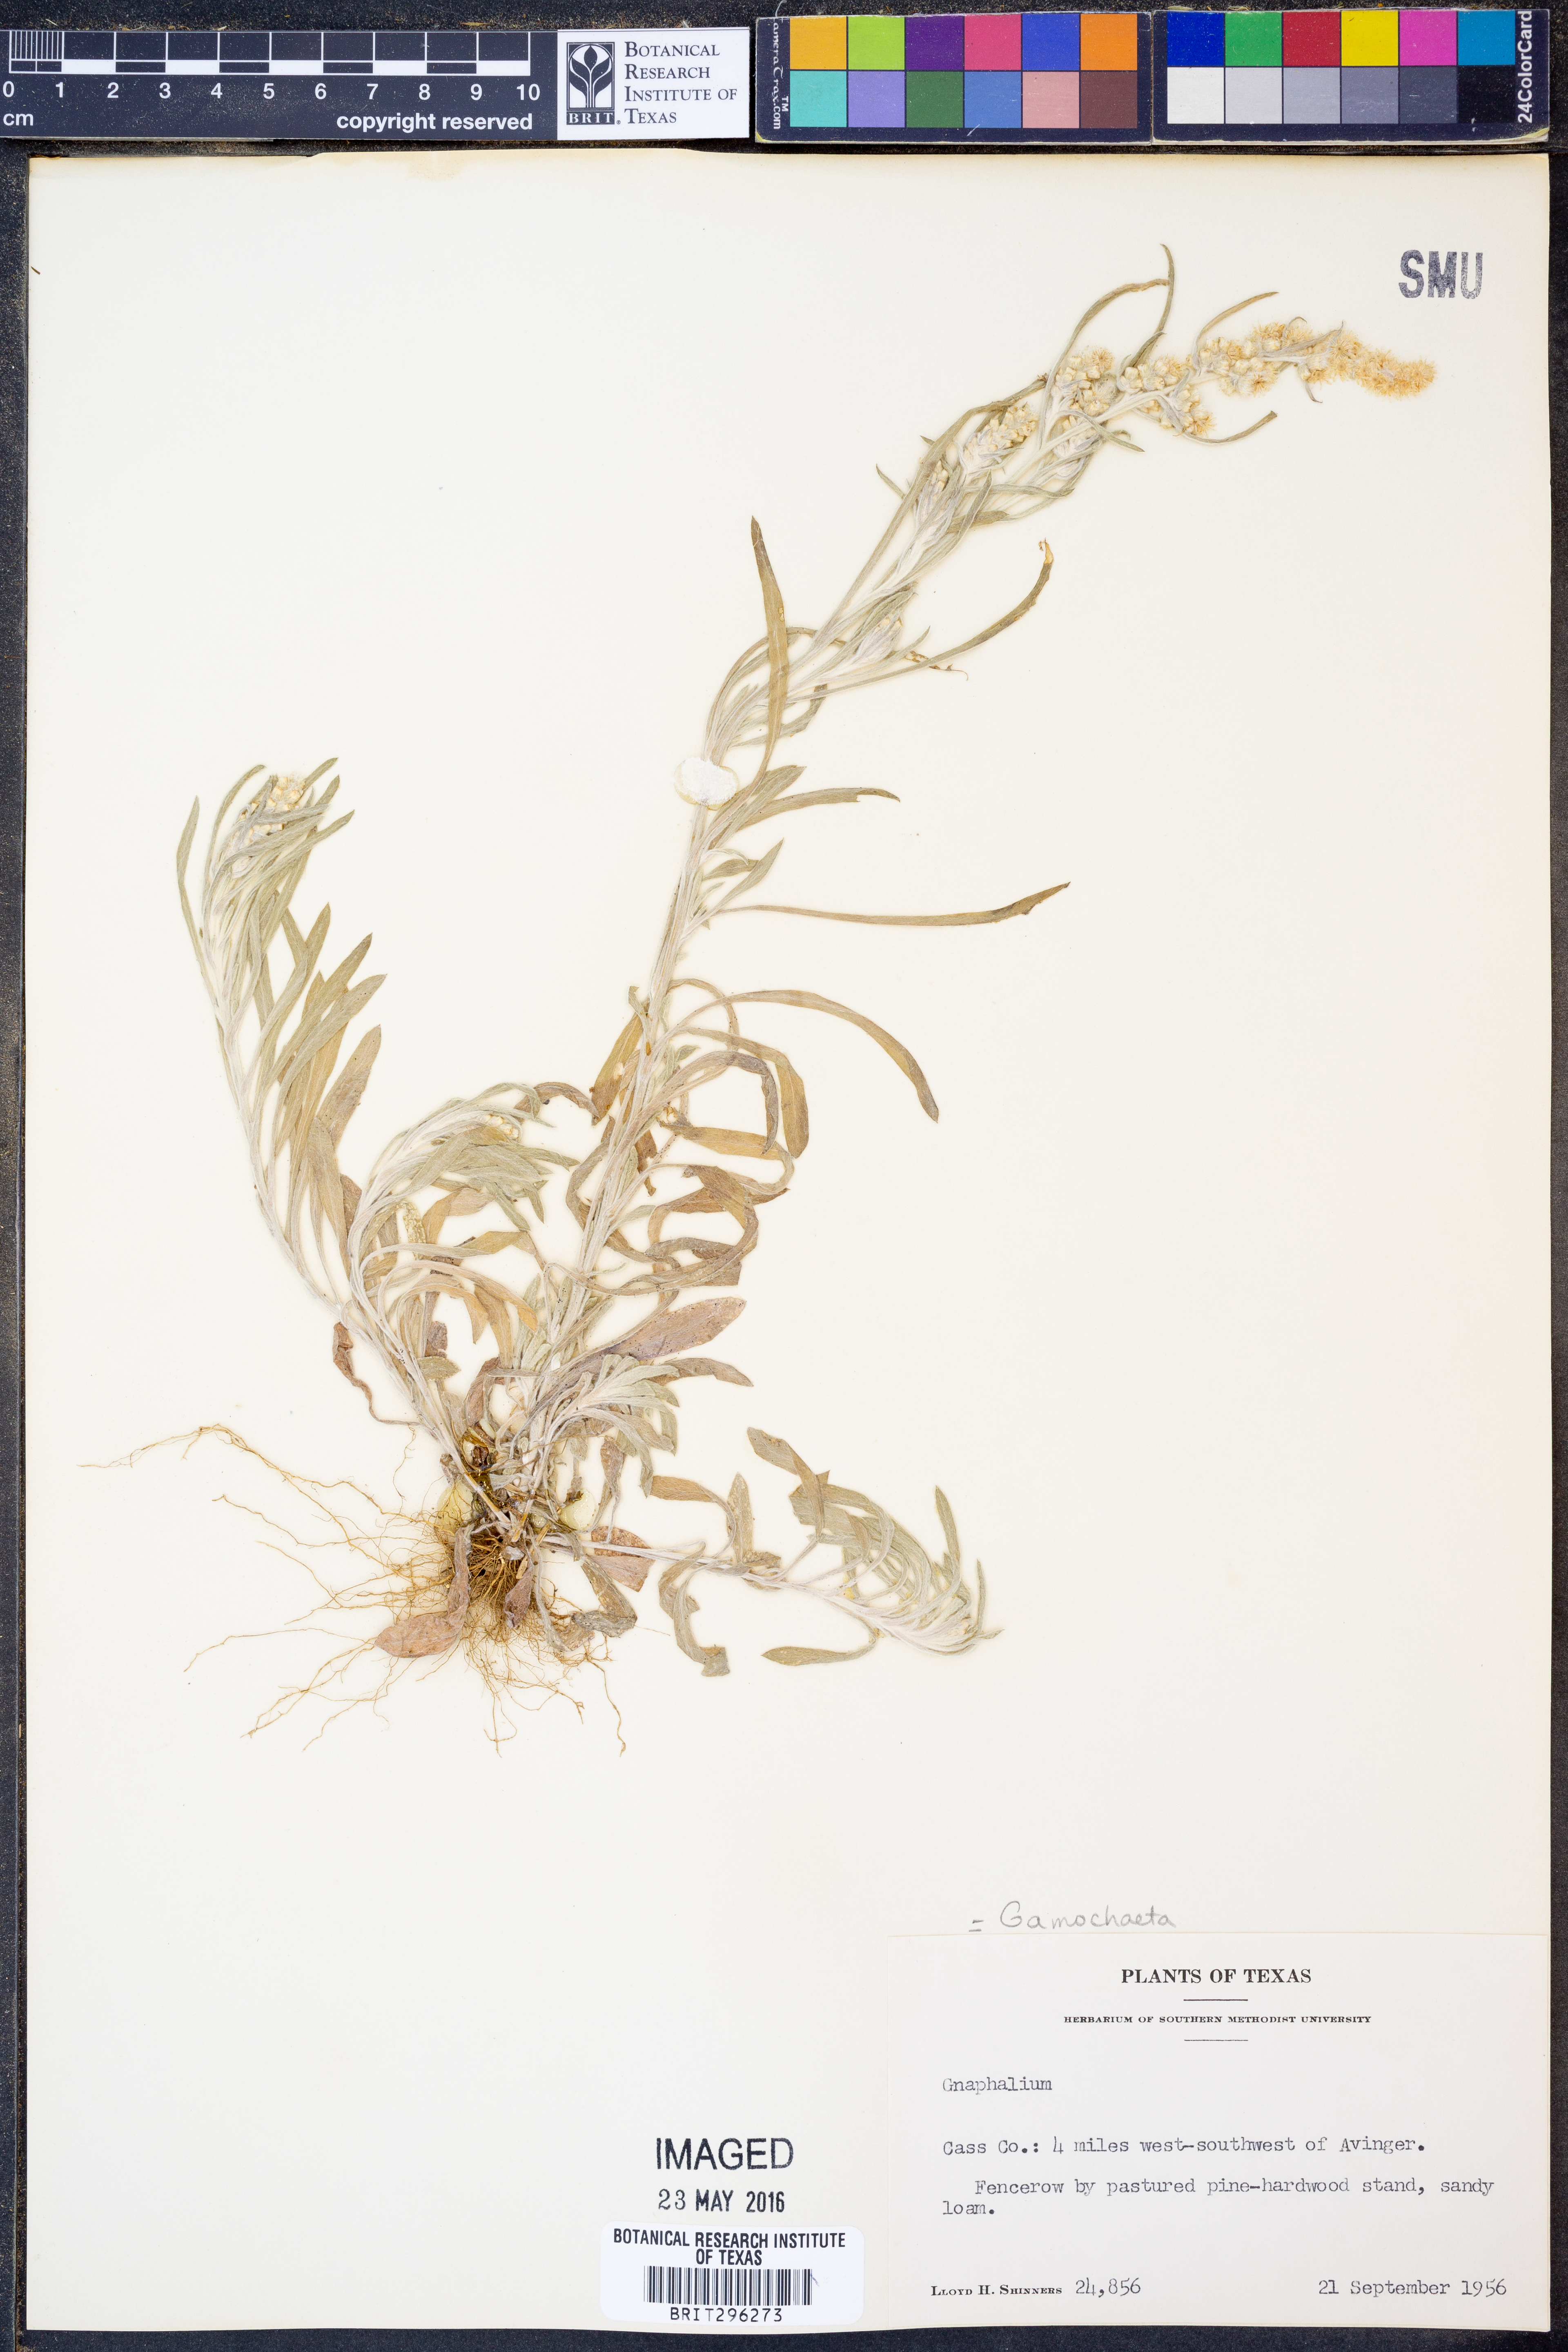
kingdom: Plantae
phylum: Tracheophyta
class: Magnoliopsida
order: Asterales
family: Asteraceae
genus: Gamochaeta
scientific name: Gamochaeta
